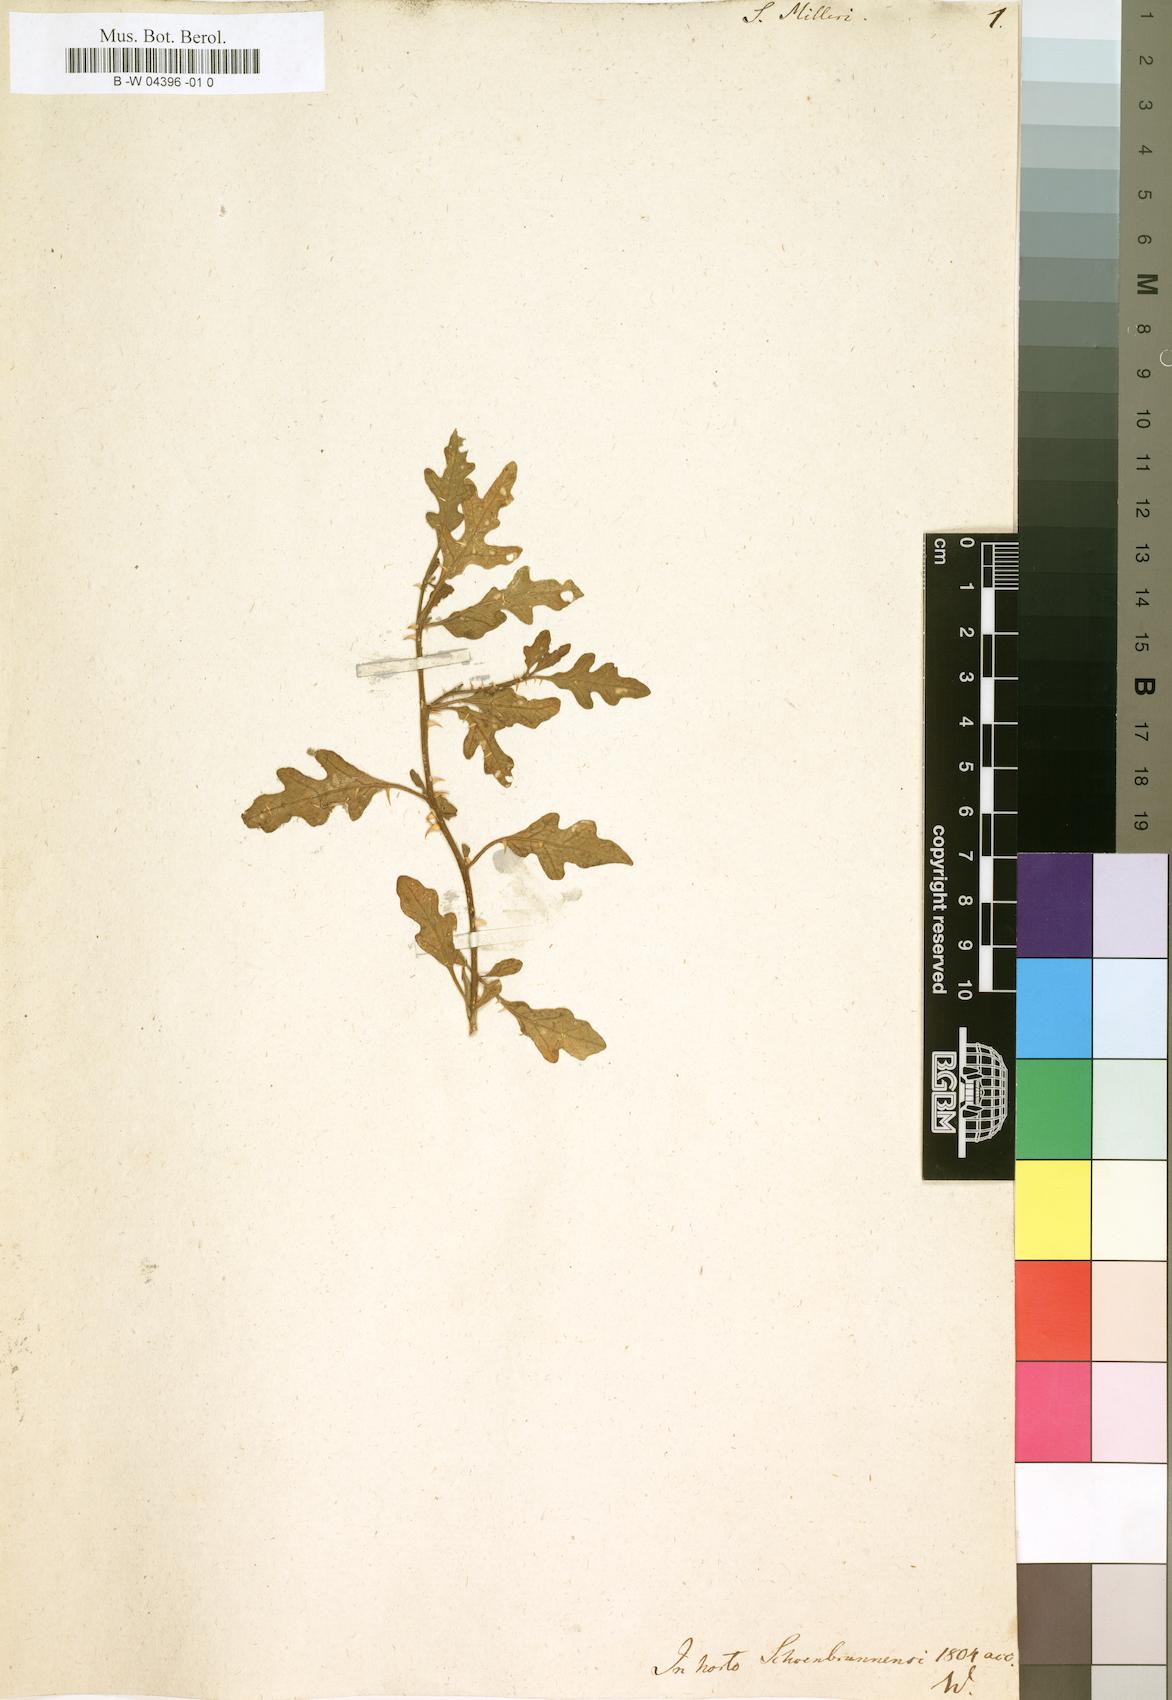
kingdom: Plantae
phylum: Tracheophyta
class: Magnoliopsida
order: Solanales
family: Solanaceae
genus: Solanum
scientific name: Solanum capense
